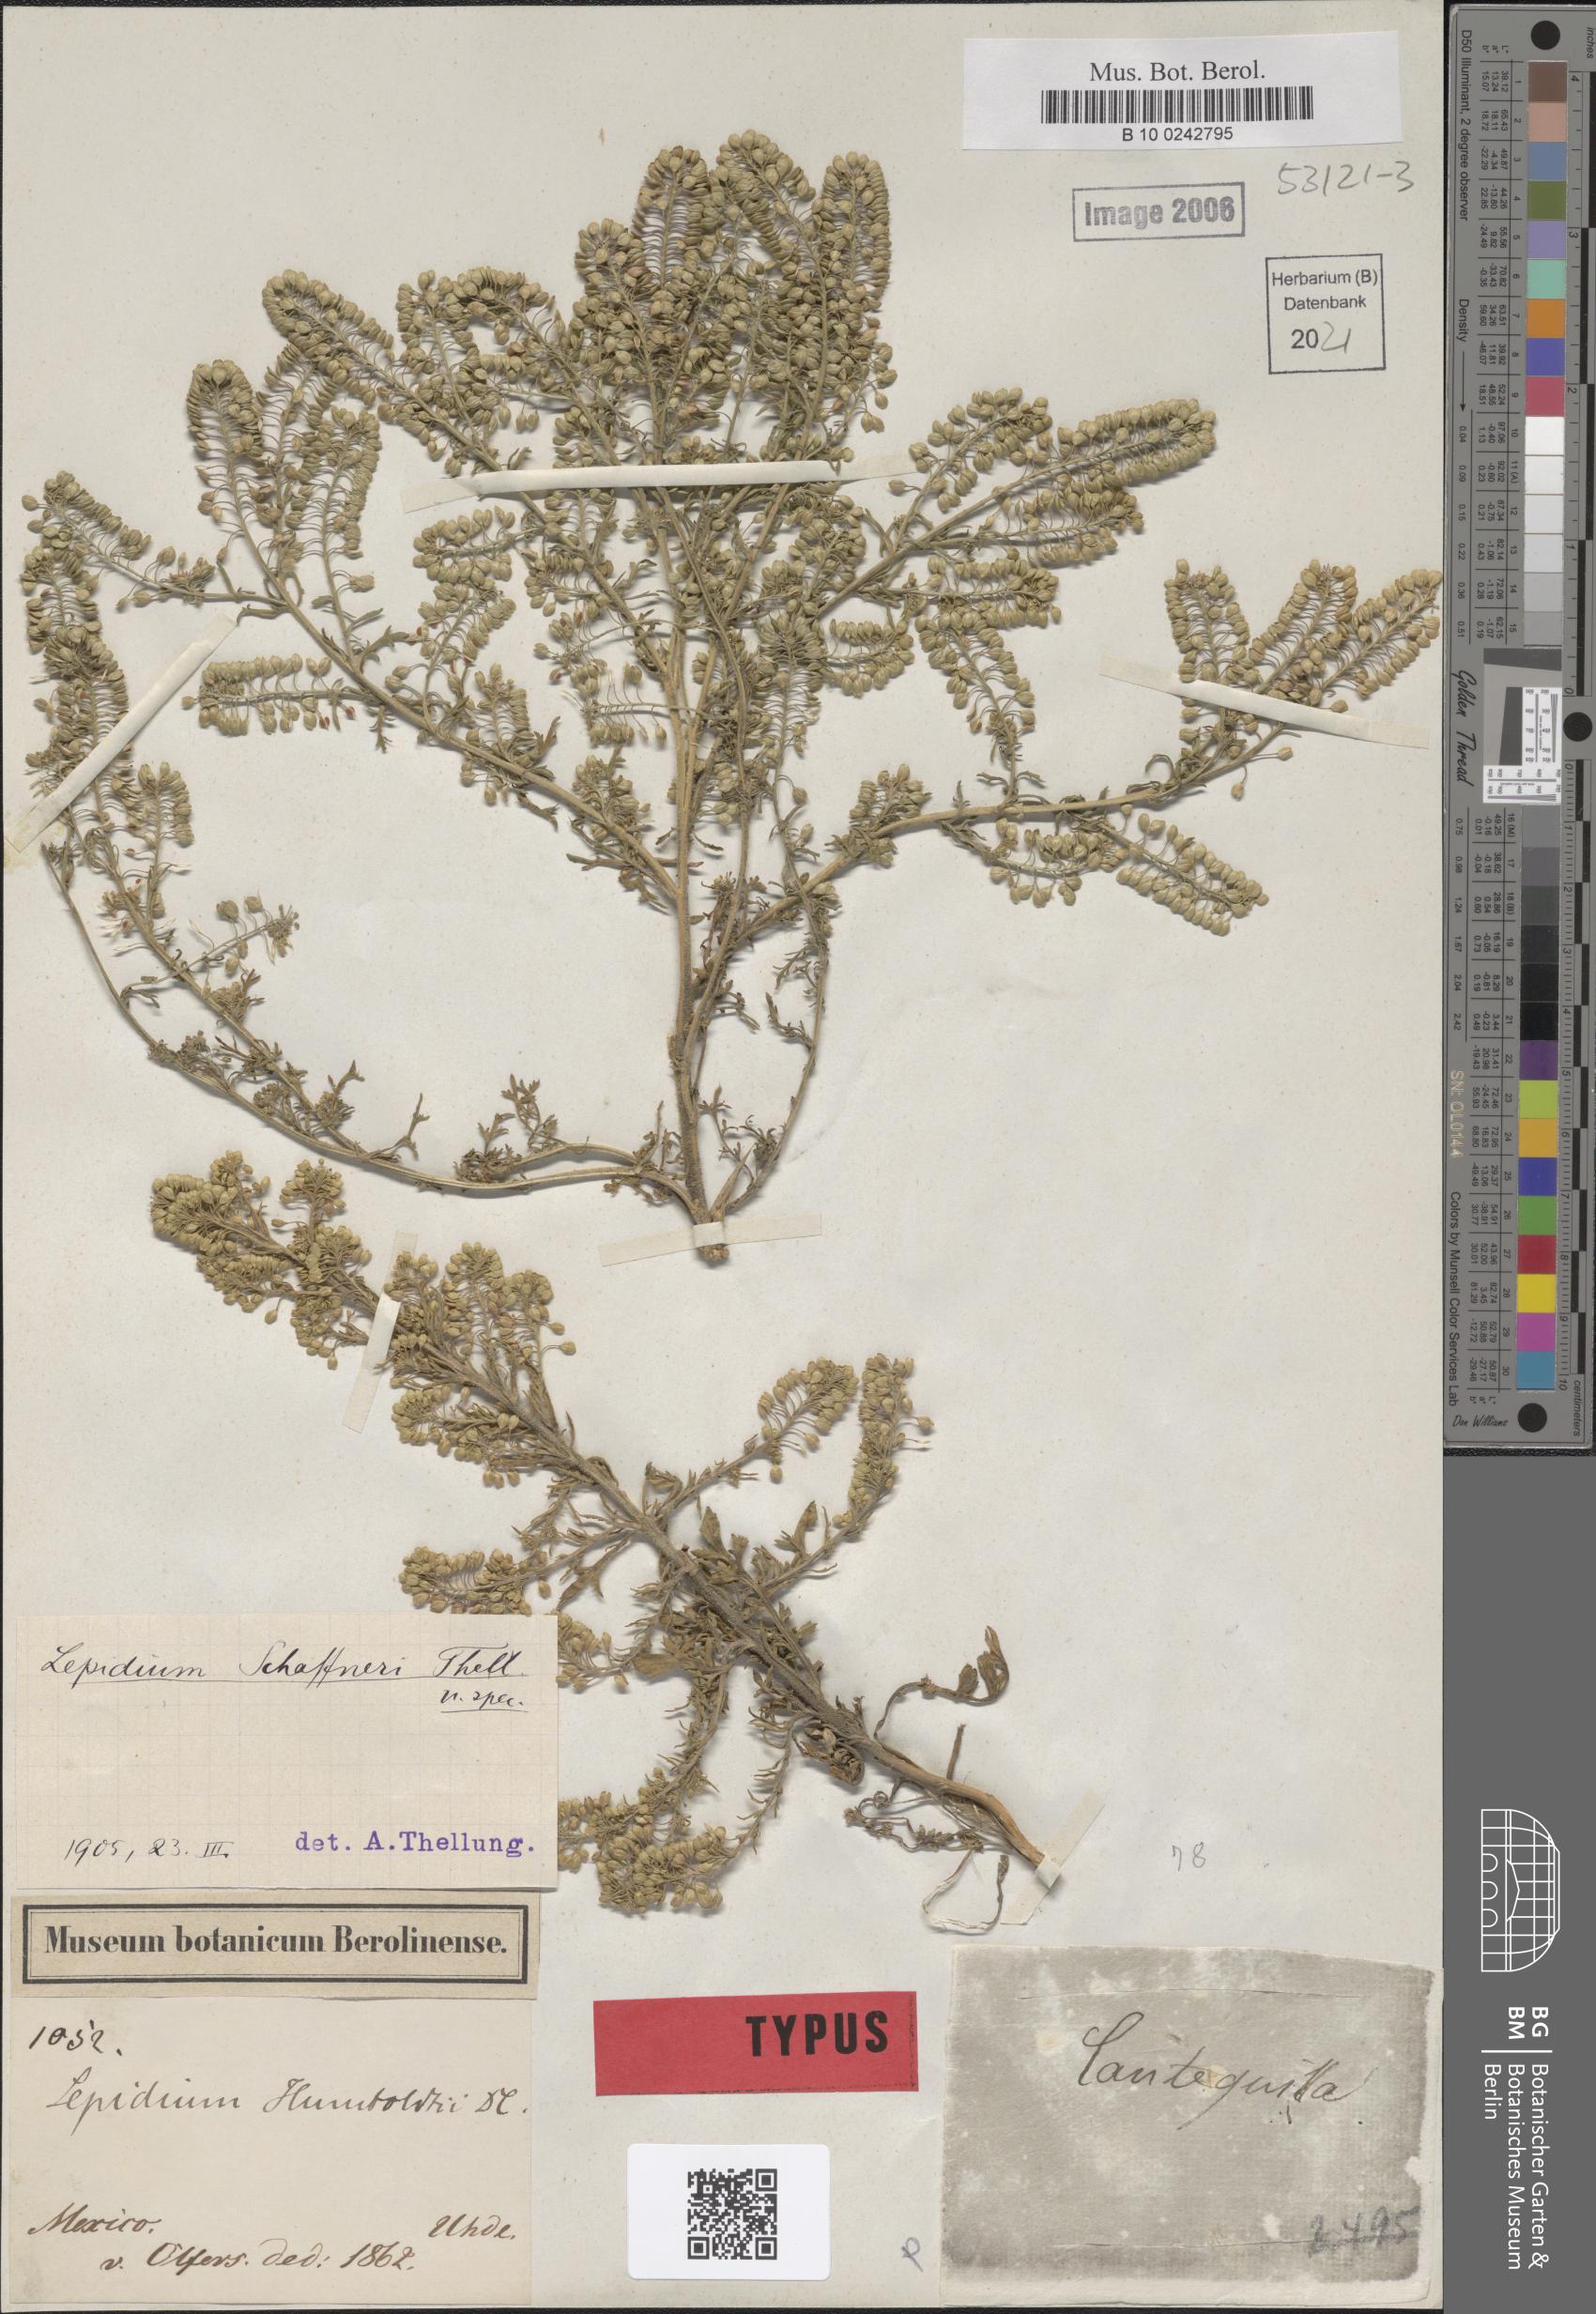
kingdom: Plantae
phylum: Tracheophyta
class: Magnoliopsida
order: Brassicales
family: Brassicaceae
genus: Lepidium
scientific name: Lepidium schaffneri
